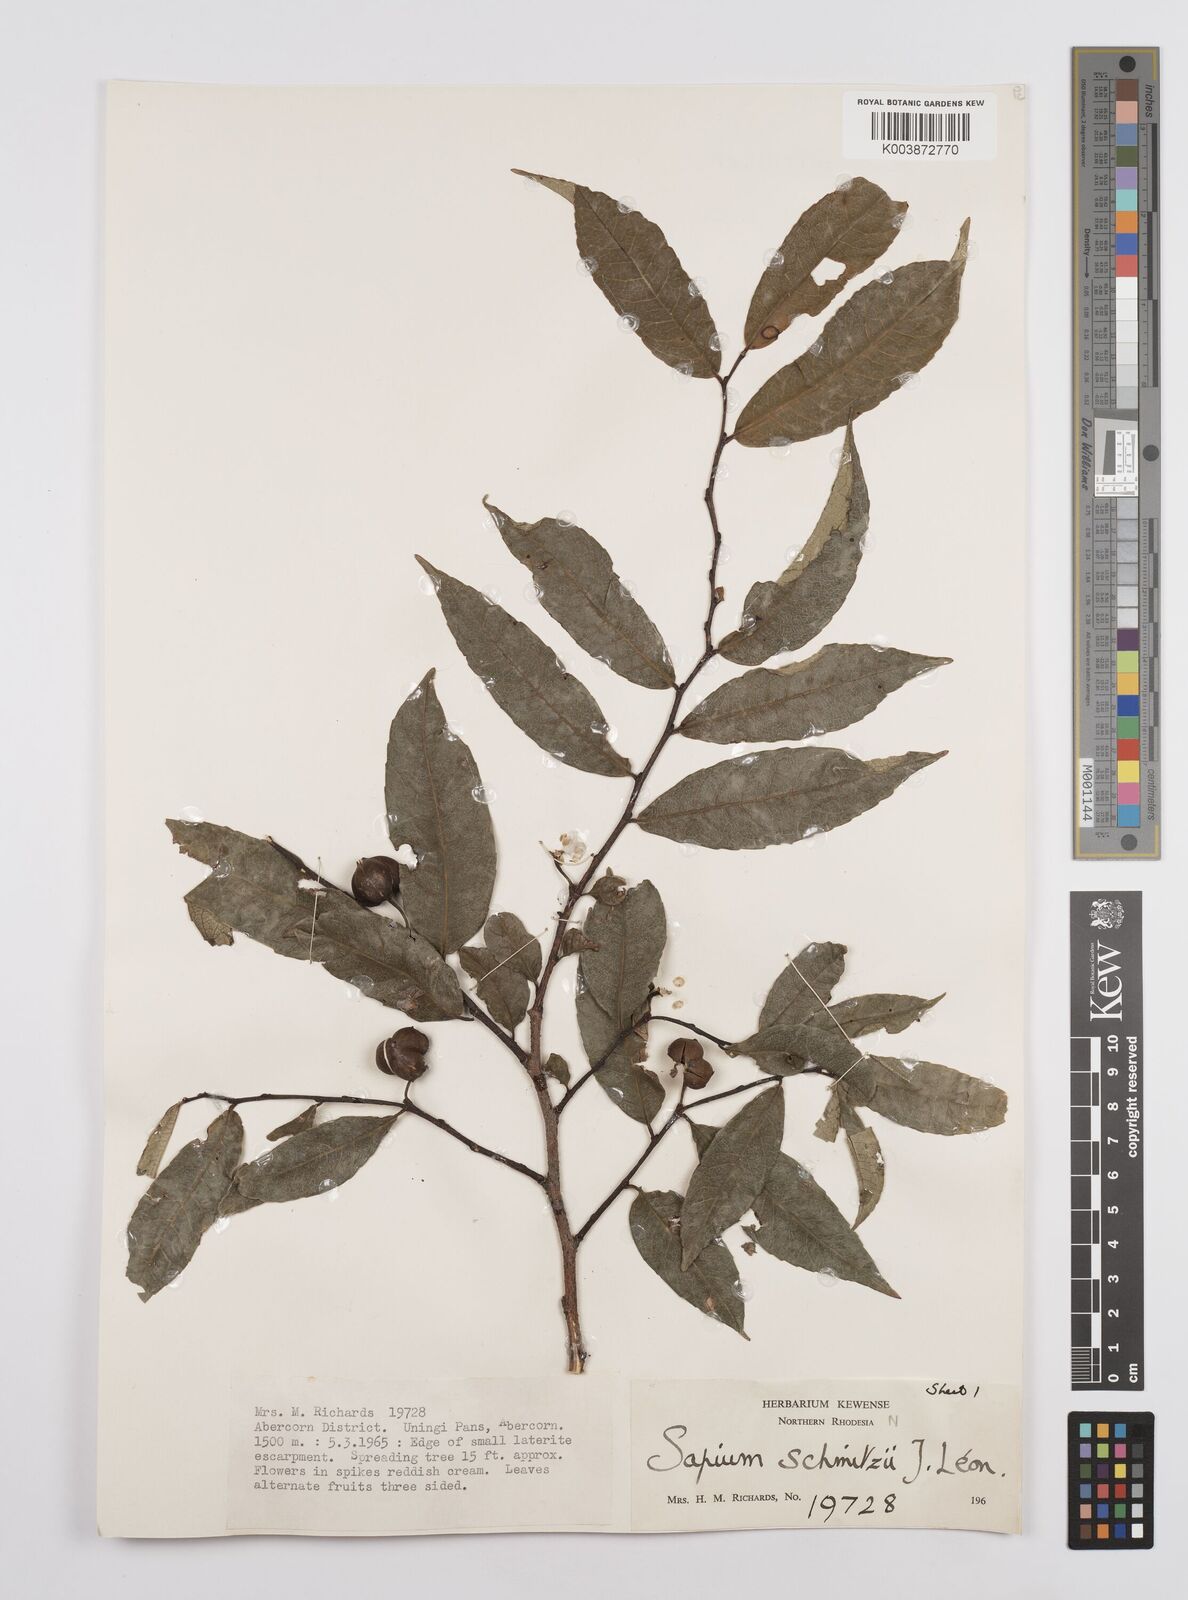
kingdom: Plantae
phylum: Tracheophyta
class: Magnoliopsida
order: Malpighiales
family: Euphorbiaceae
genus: Sclerocroton
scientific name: Sclerocroton schmitzii
